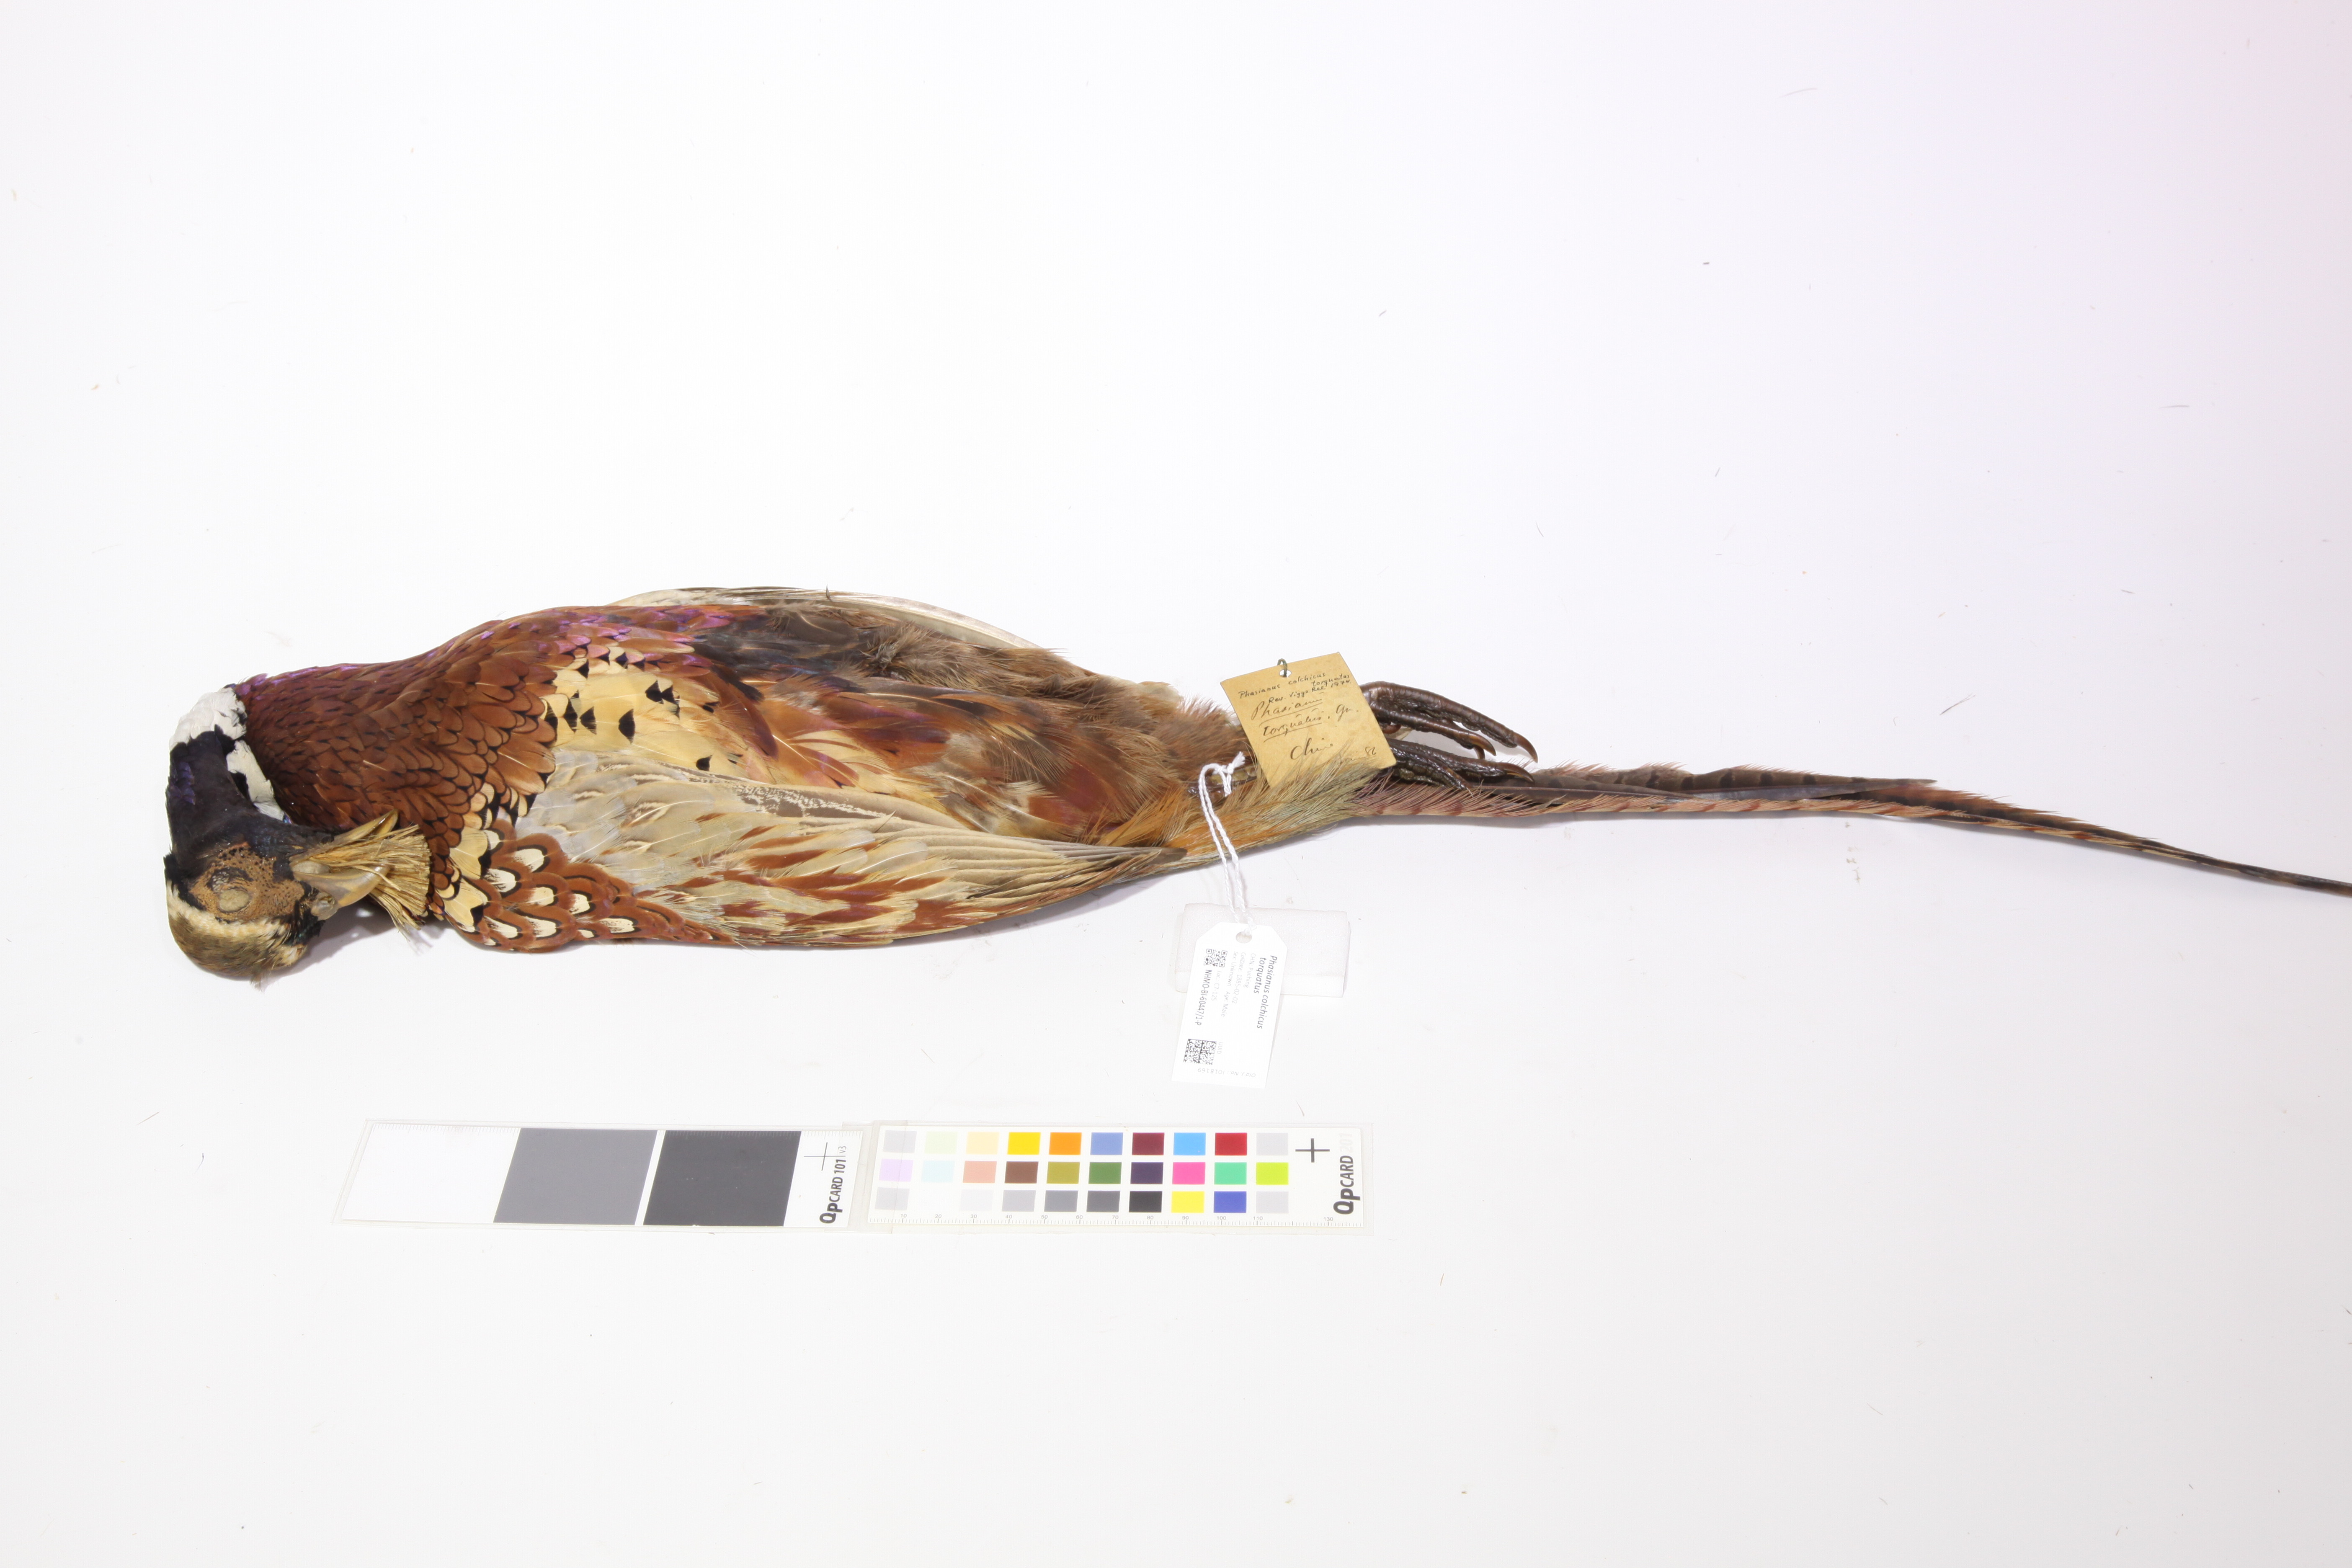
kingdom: Animalia
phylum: Chordata
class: Aves
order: Galliformes
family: Phasianidae
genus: Phasianus
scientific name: Phasianus colchicus
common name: Common pheasant
